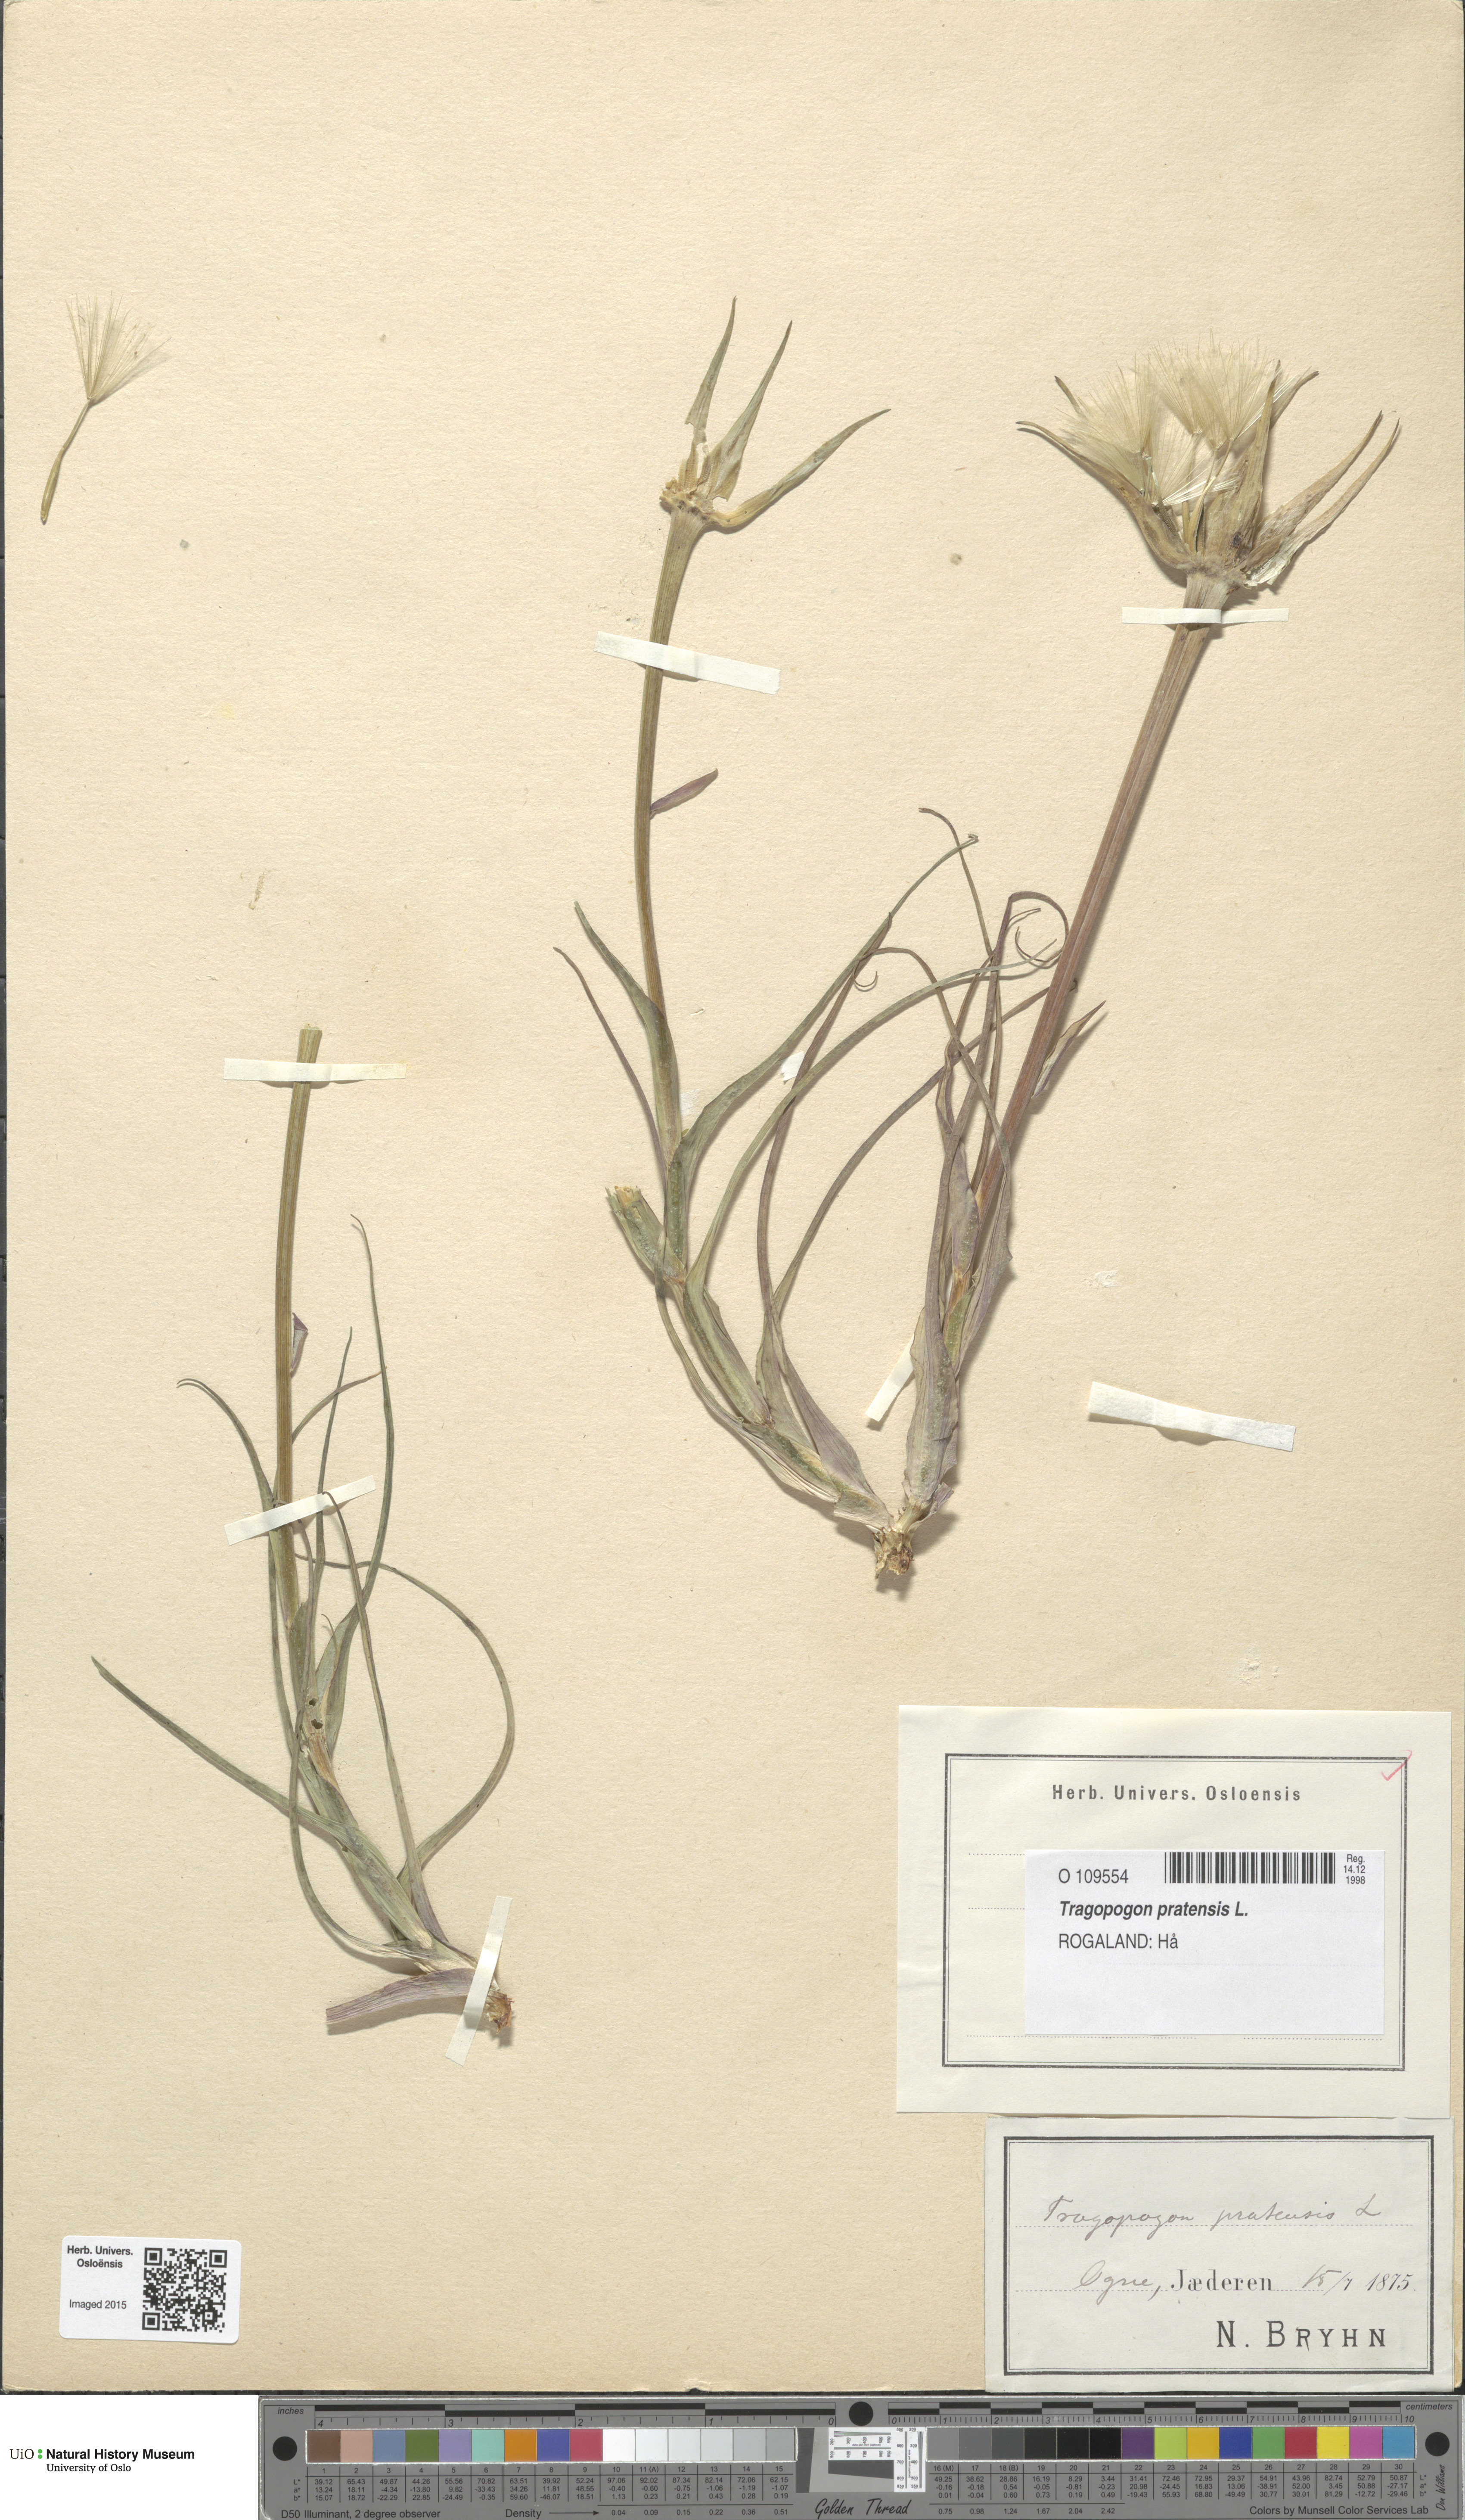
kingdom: Plantae
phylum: Tracheophyta
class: Magnoliopsida
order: Asterales
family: Asteraceae
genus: Tragopogon
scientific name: Tragopogon pratensis
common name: Goat's-beard
